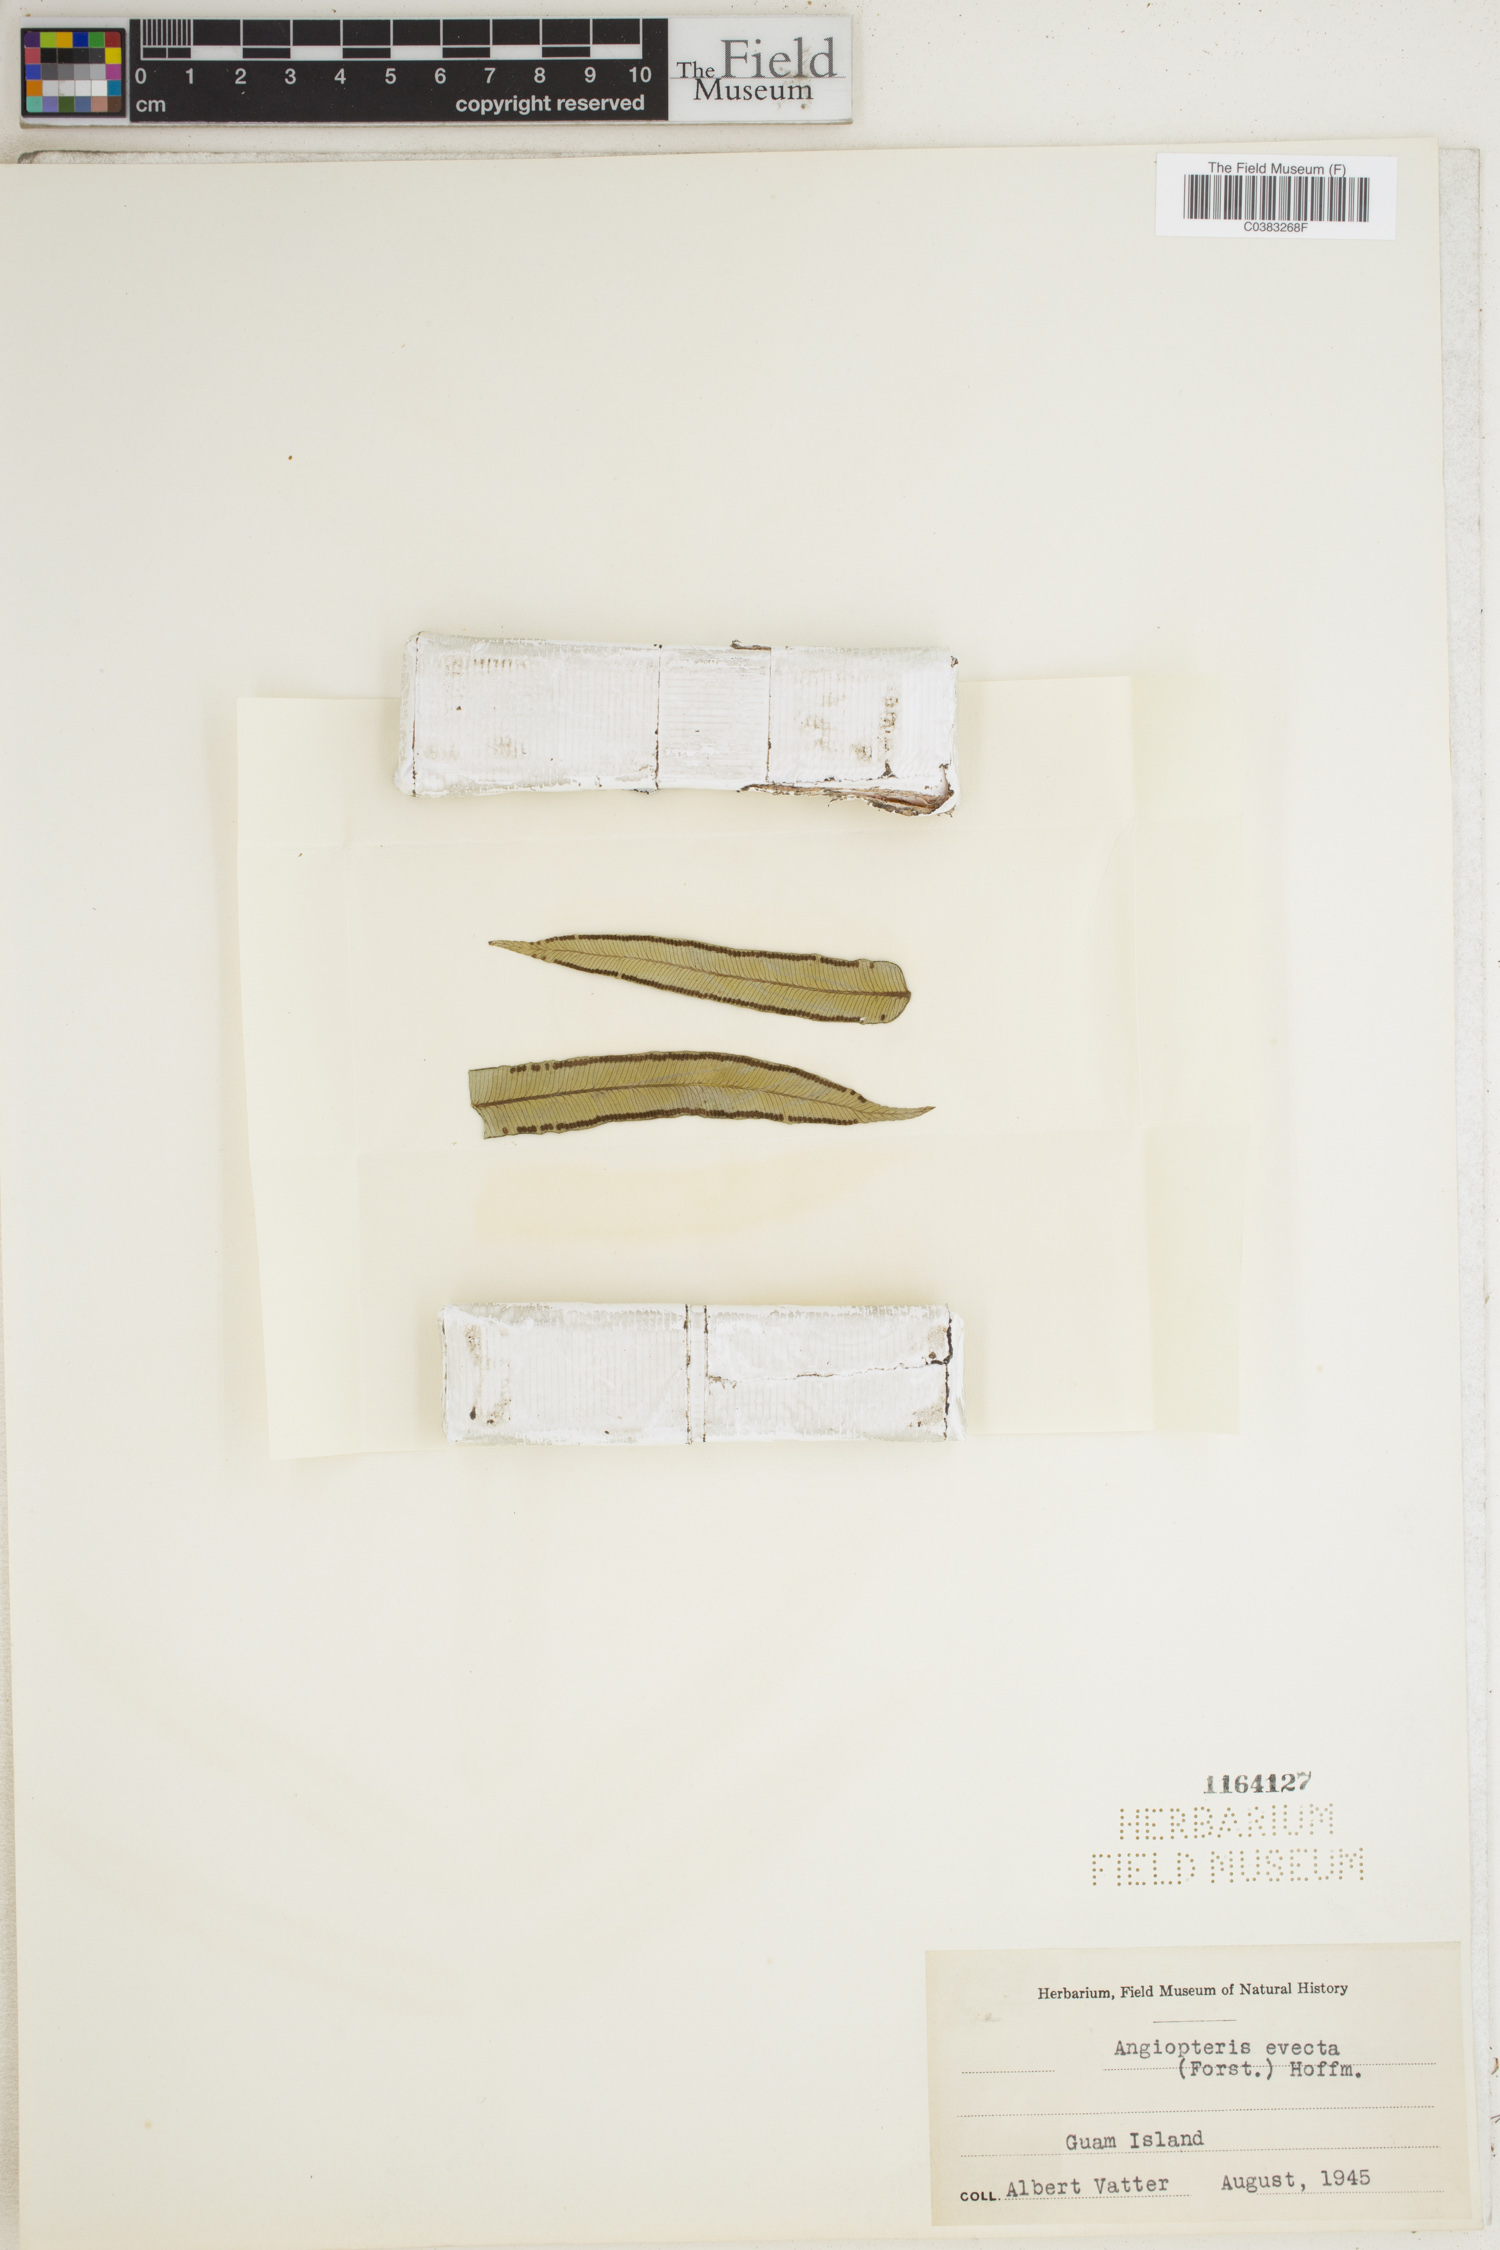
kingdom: Plantae
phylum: Tracheophyta
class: Polypodiopsida
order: Marattiales
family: Marattiaceae
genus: Angiopteris
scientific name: Angiopteris evecta
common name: Mule's-foot fern
